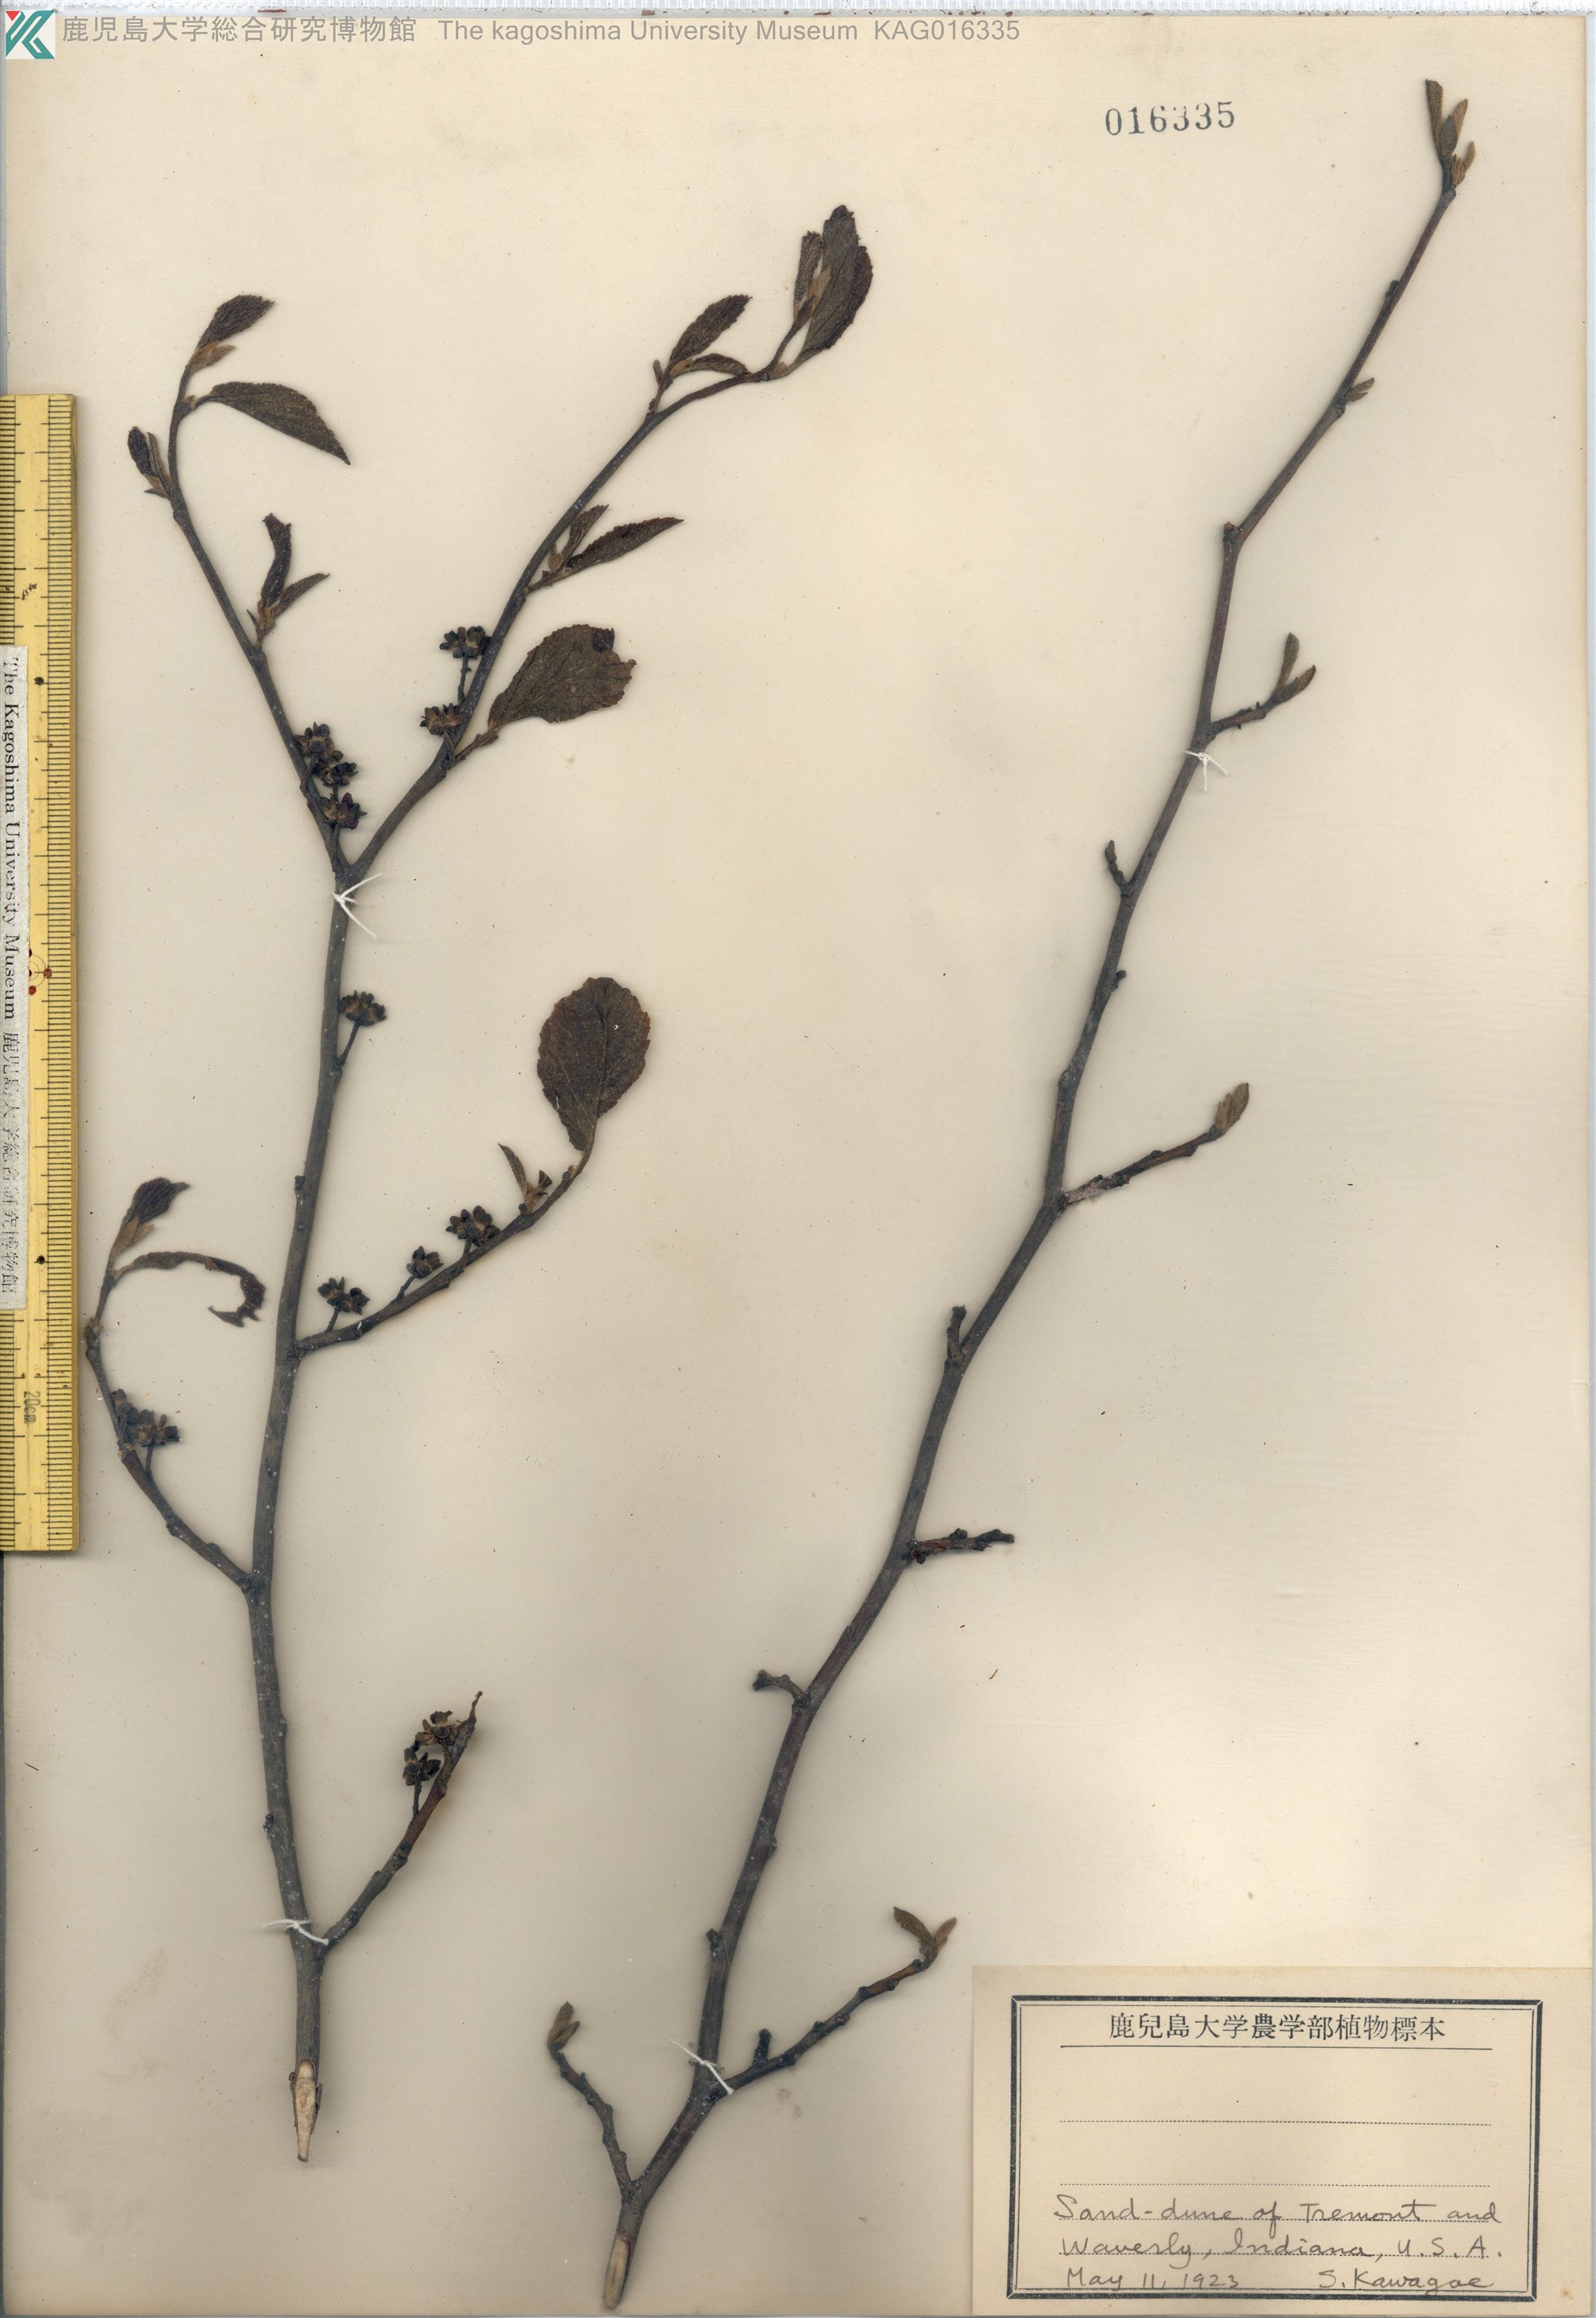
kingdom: Plantae
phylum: Tracheophyta
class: Magnoliopsida
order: Saxifragales
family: Hamamelidaceae
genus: Hamamelis
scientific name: Hamamelis virginiana
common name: Witch-hazel
